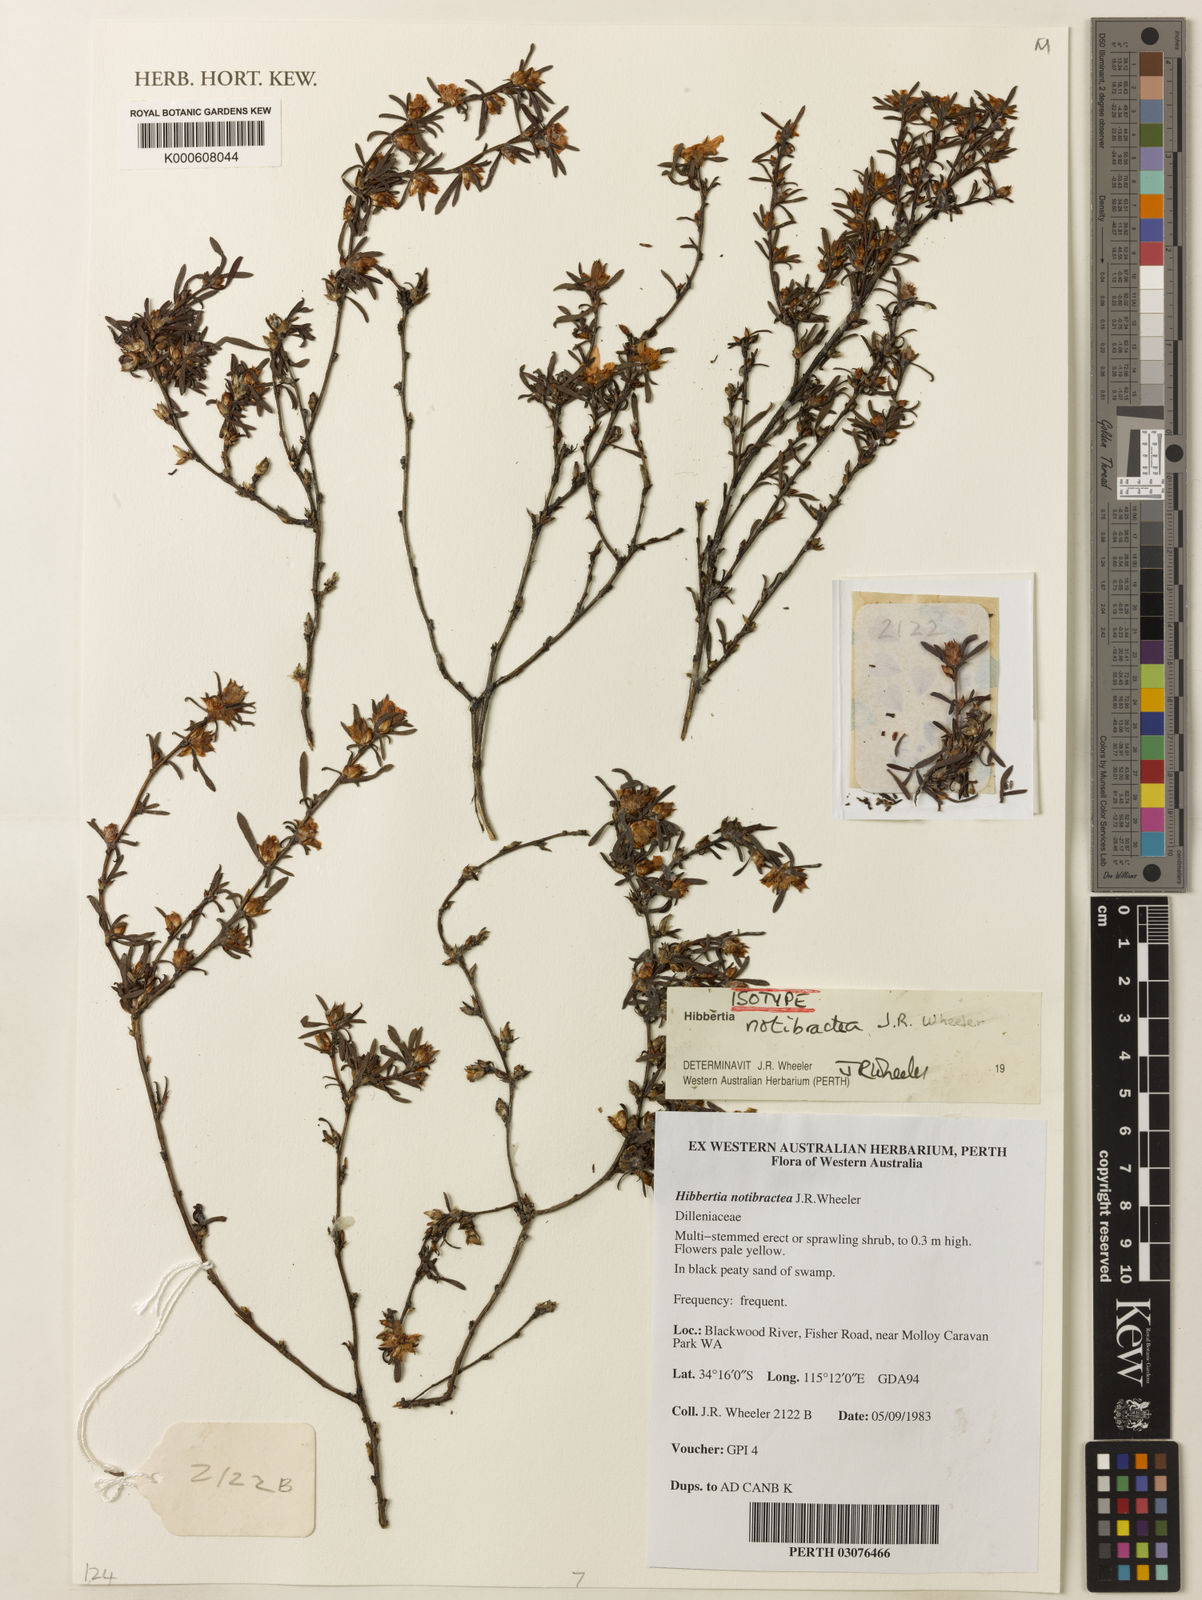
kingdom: Plantae
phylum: Tracheophyta
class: Magnoliopsida
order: Dilleniales
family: Dilleniaceae
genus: Hibbertia
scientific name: Hibbertia notibractea
